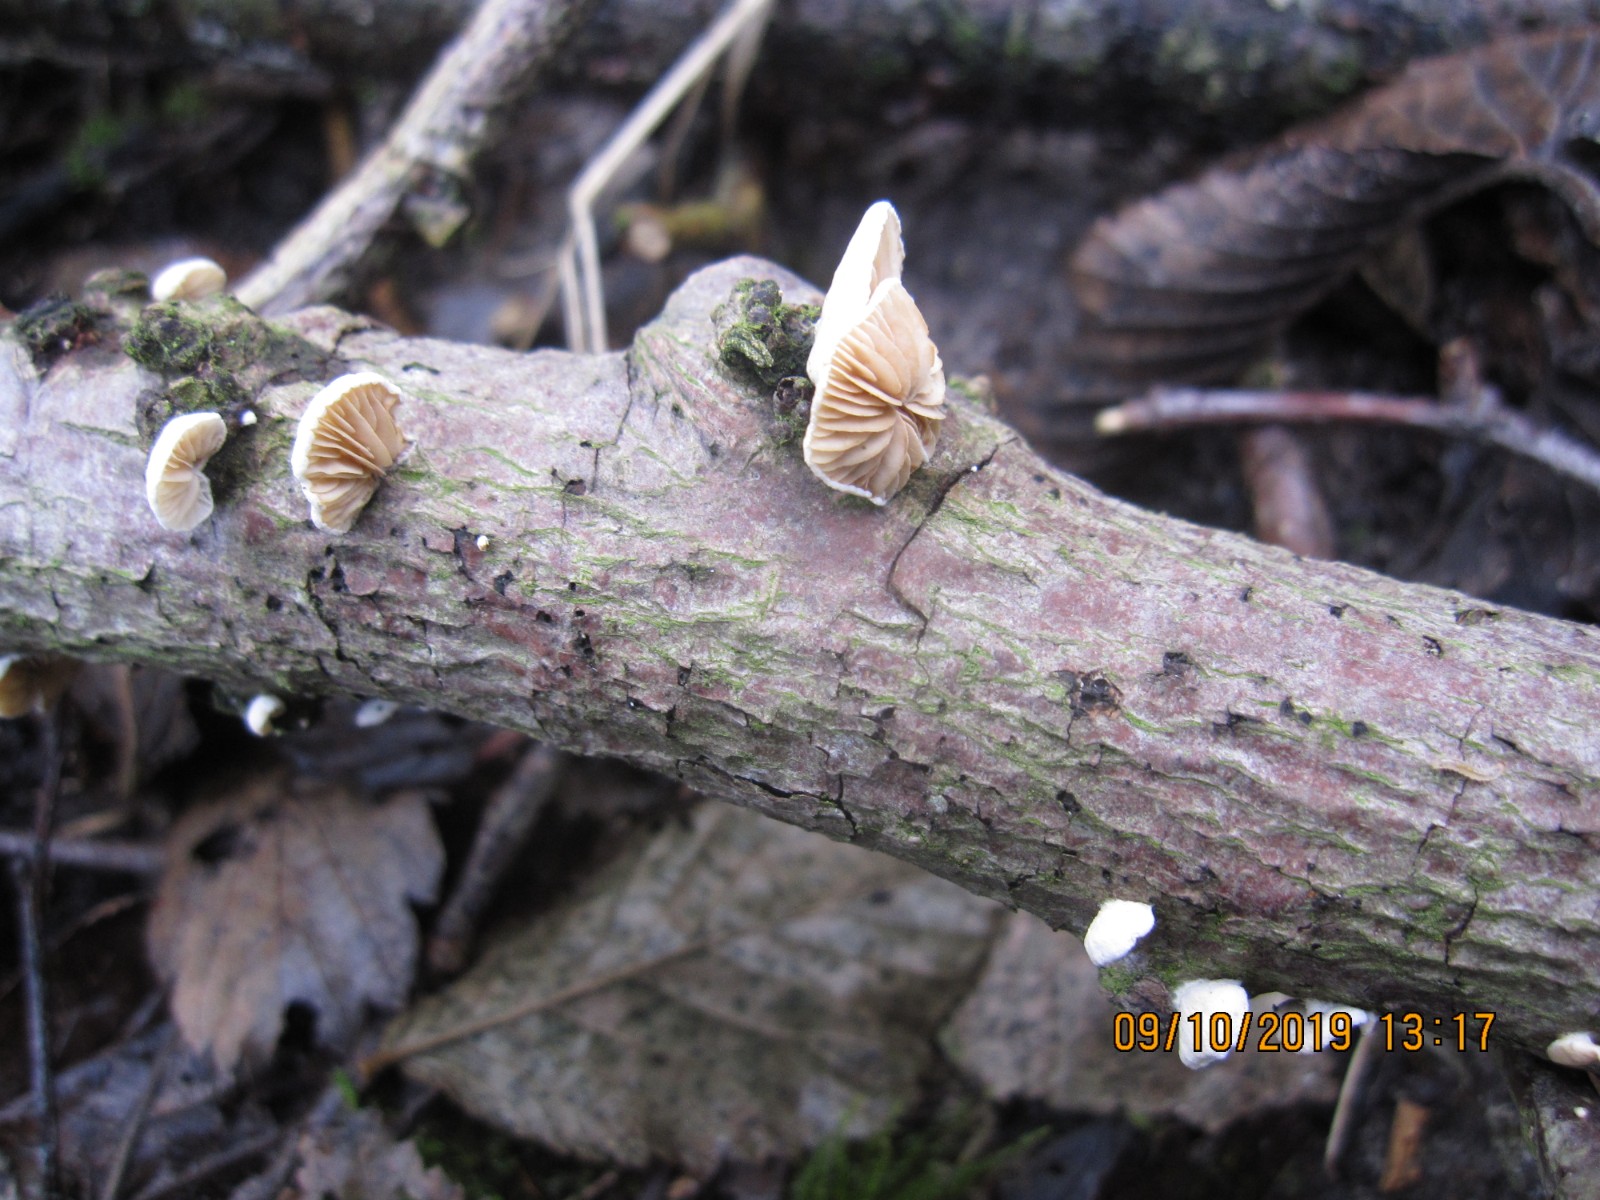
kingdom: Fungi
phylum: Basidiomycota
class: Agaricomycetes
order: Agaricales
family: Crepidotaceae
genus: Crepidotus
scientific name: Crepidotus cesatii
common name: almindelig muslingesvamp
